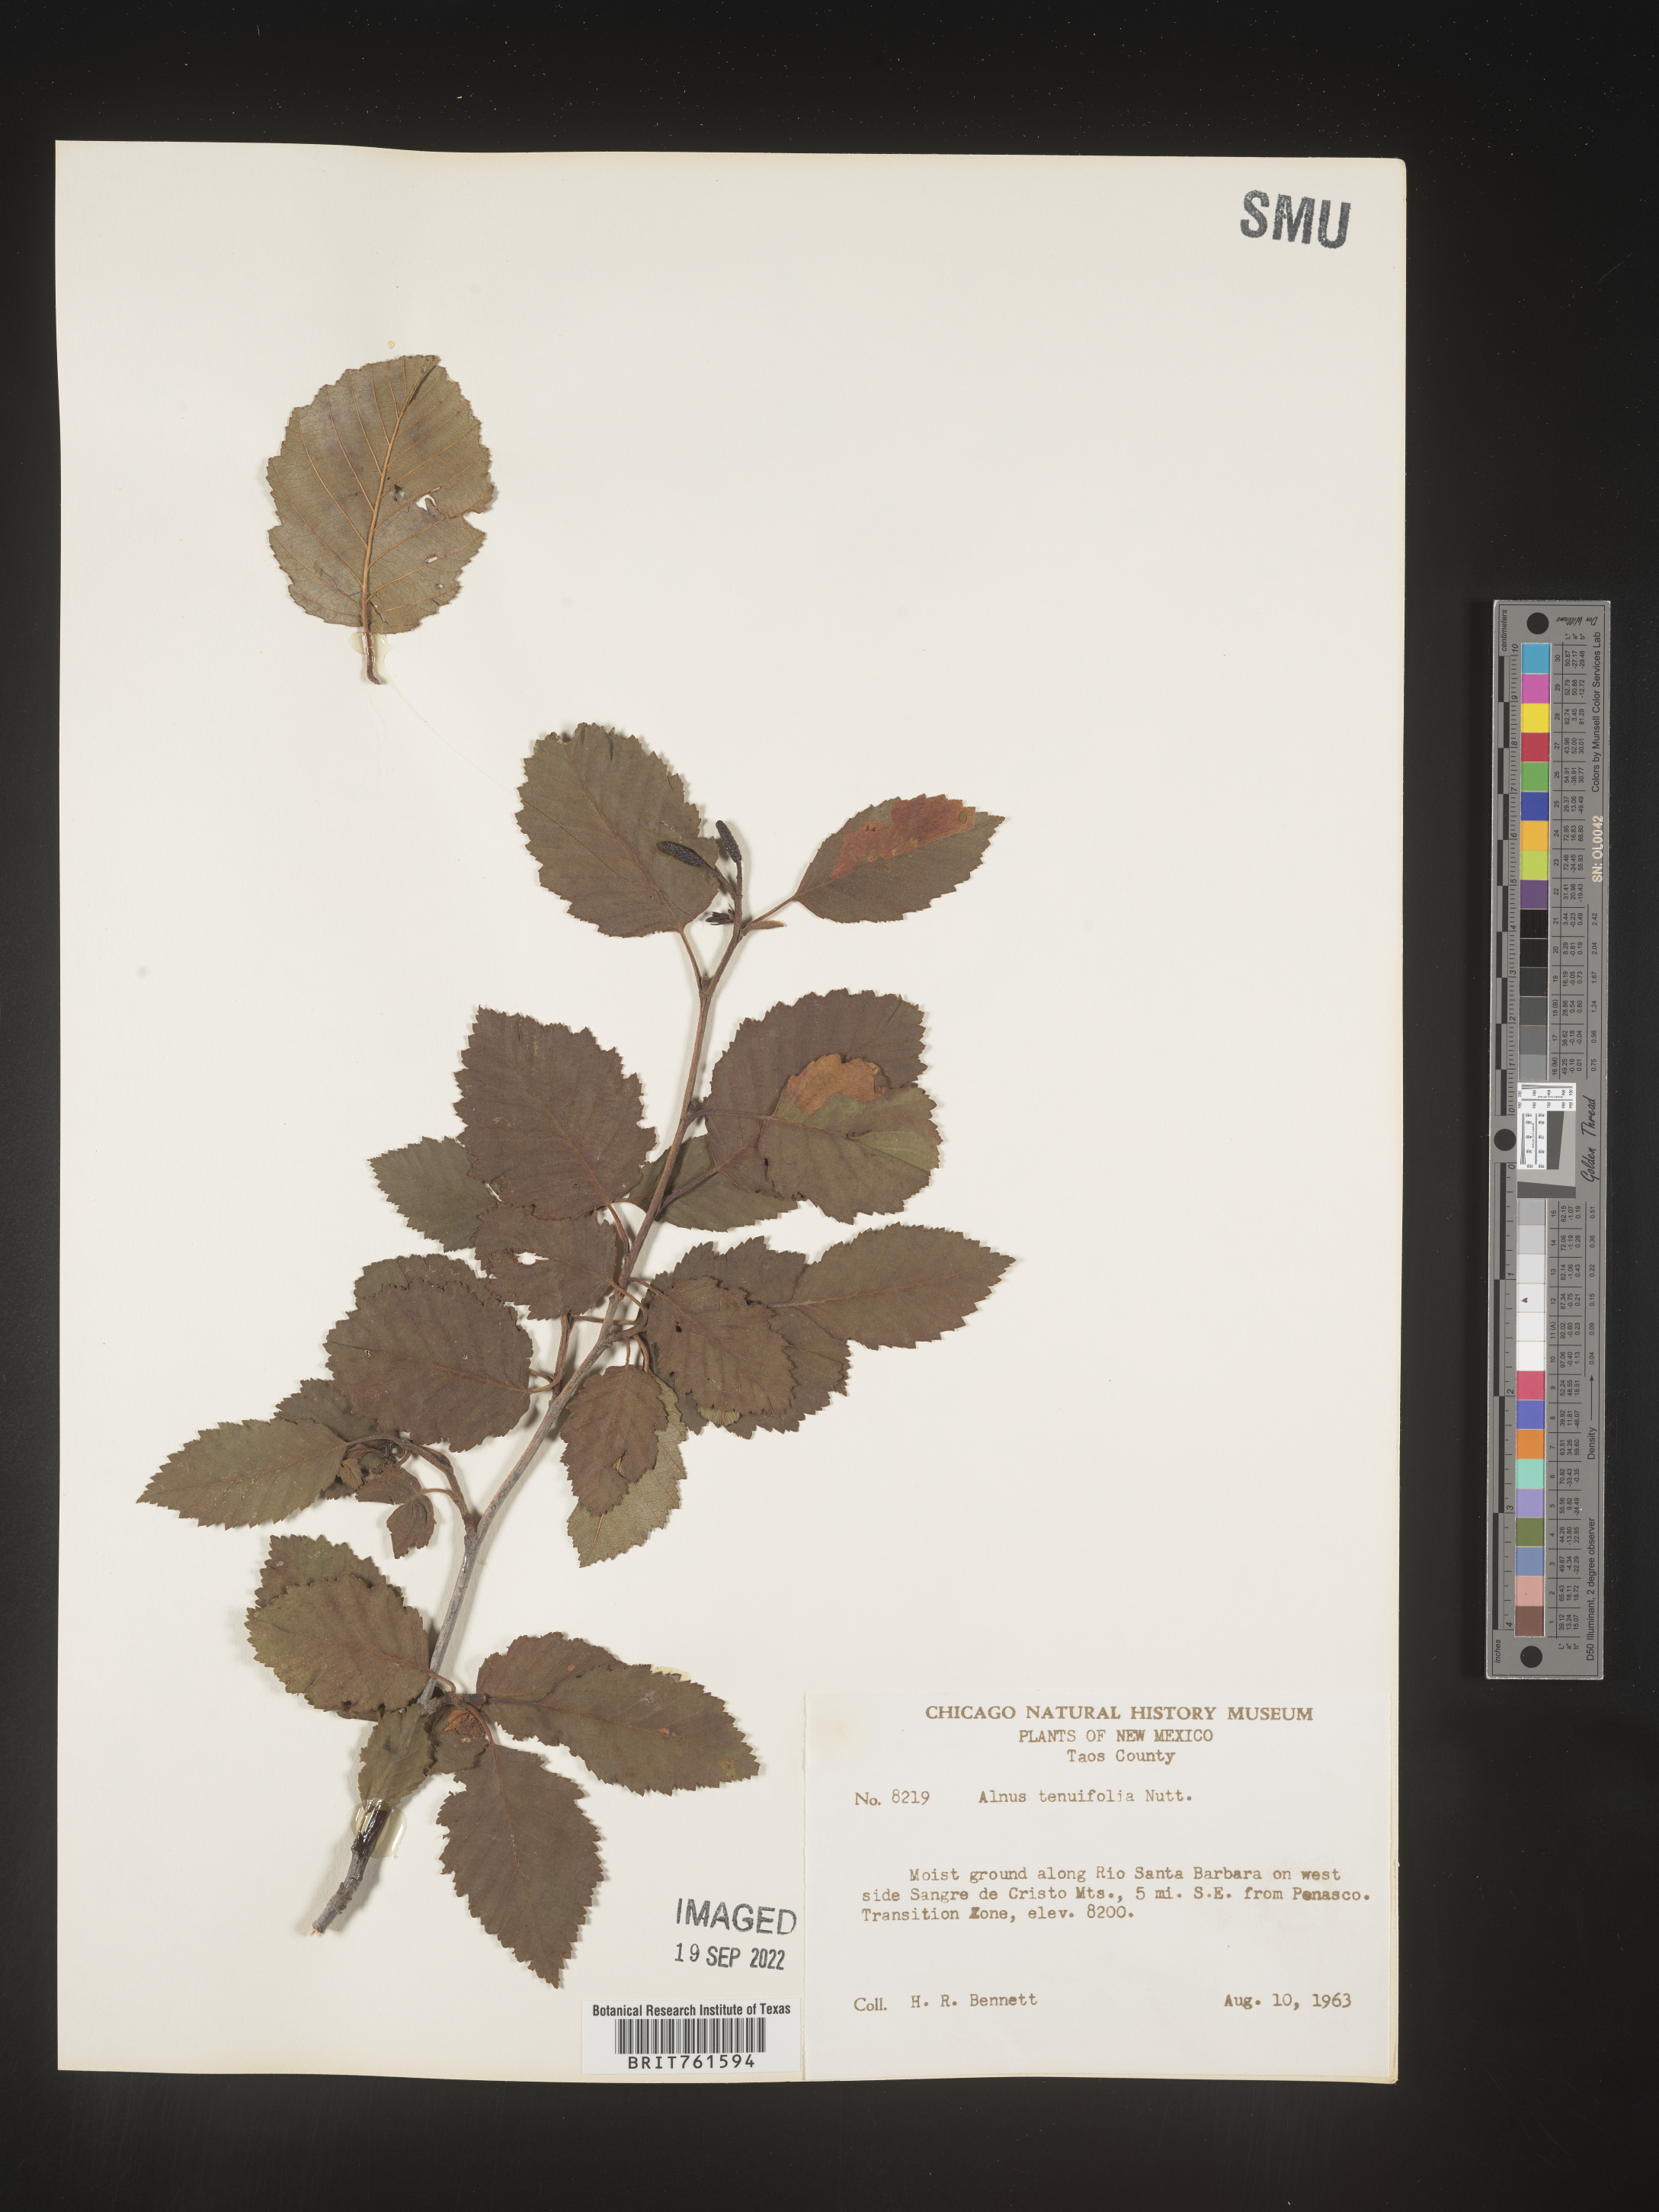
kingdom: Plantae
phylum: Tracheophyta
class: Magnoliopsida
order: Fagales
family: Betulaceae
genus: Alnus
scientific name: Alnus incana
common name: Grey alder
